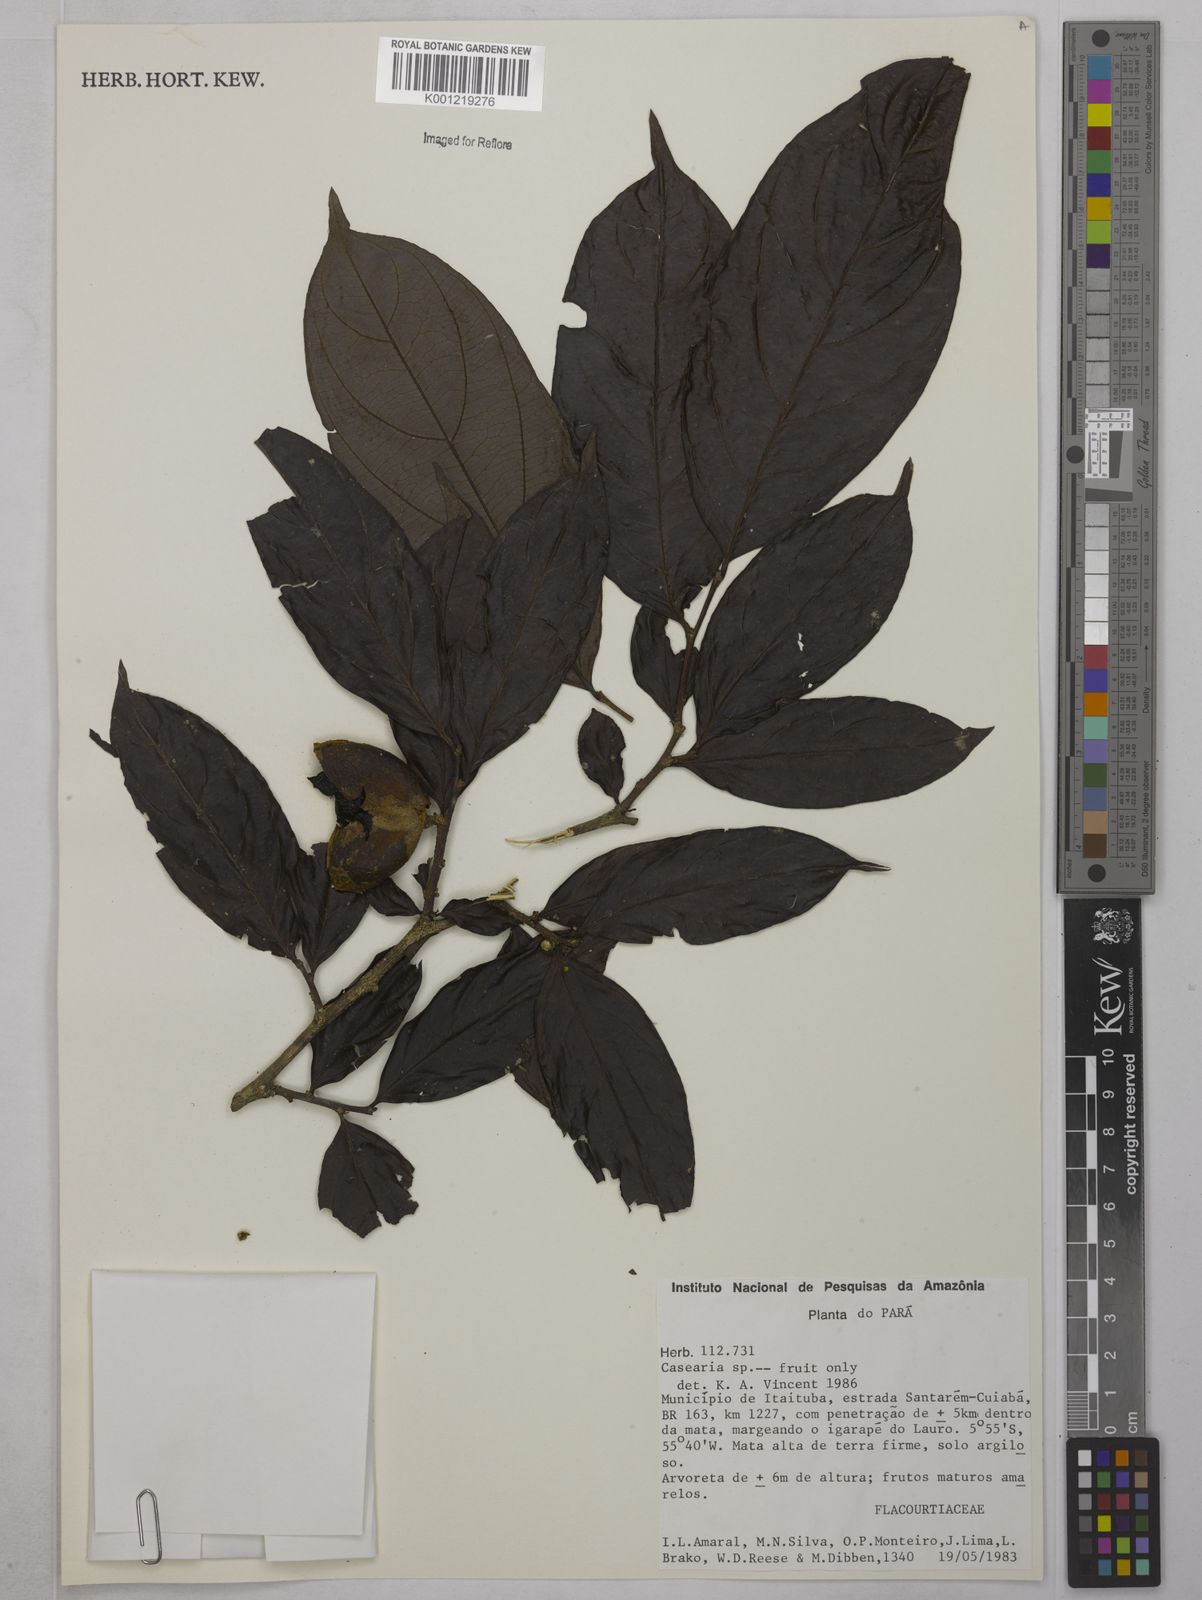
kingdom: Plantae
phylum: Tracheophyta
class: Magnoliopsida
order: Malpighiales
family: Salicaceae
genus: Casearia
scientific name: Casearia
